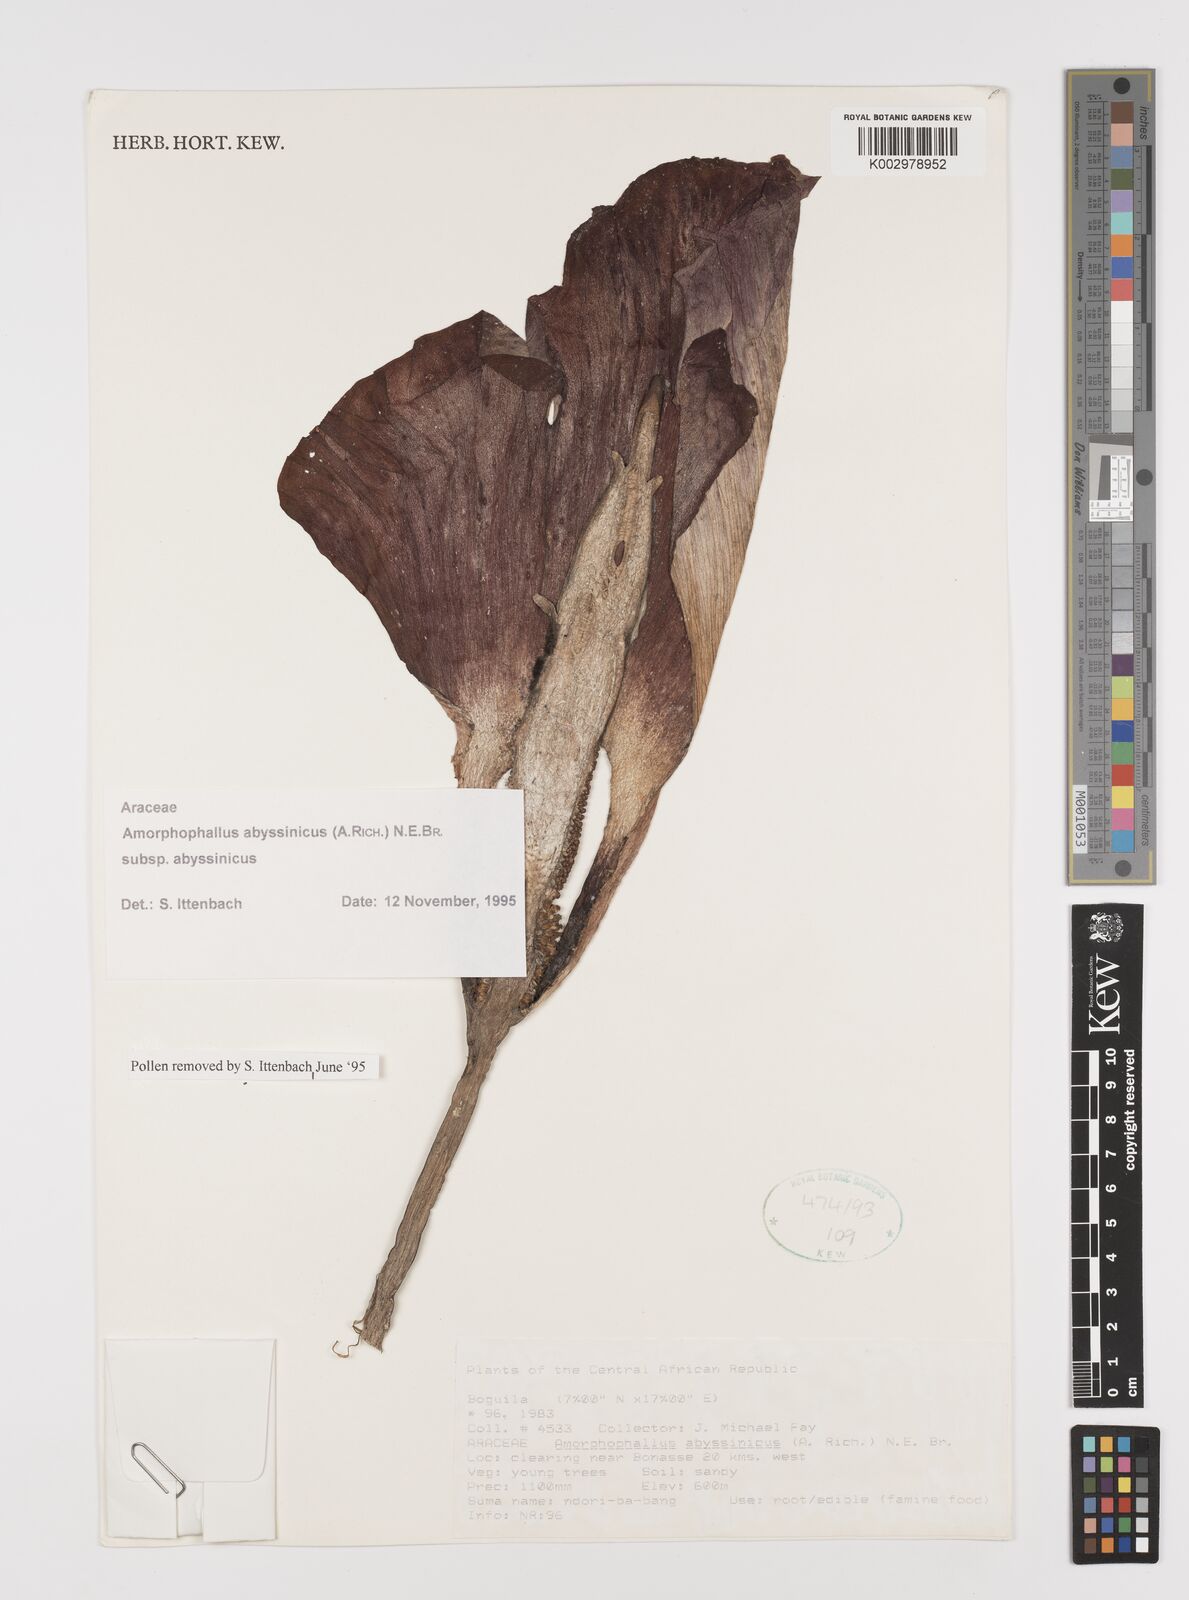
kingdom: Plantae
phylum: Tracheophyta
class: Liliopsida
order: Alismatales
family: Araceae
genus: Amorphophallus
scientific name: Amorphophallus abyssinicus
